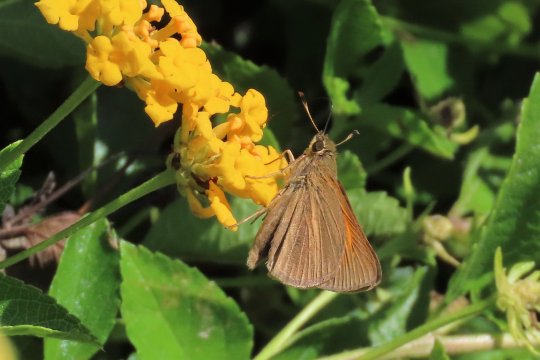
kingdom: Animalia
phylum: Arthropoda
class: Insecta
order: Lepidoptera
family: Hesperiidae
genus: Poanes
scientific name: Poanes aaroni
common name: Aaron's Skipper
